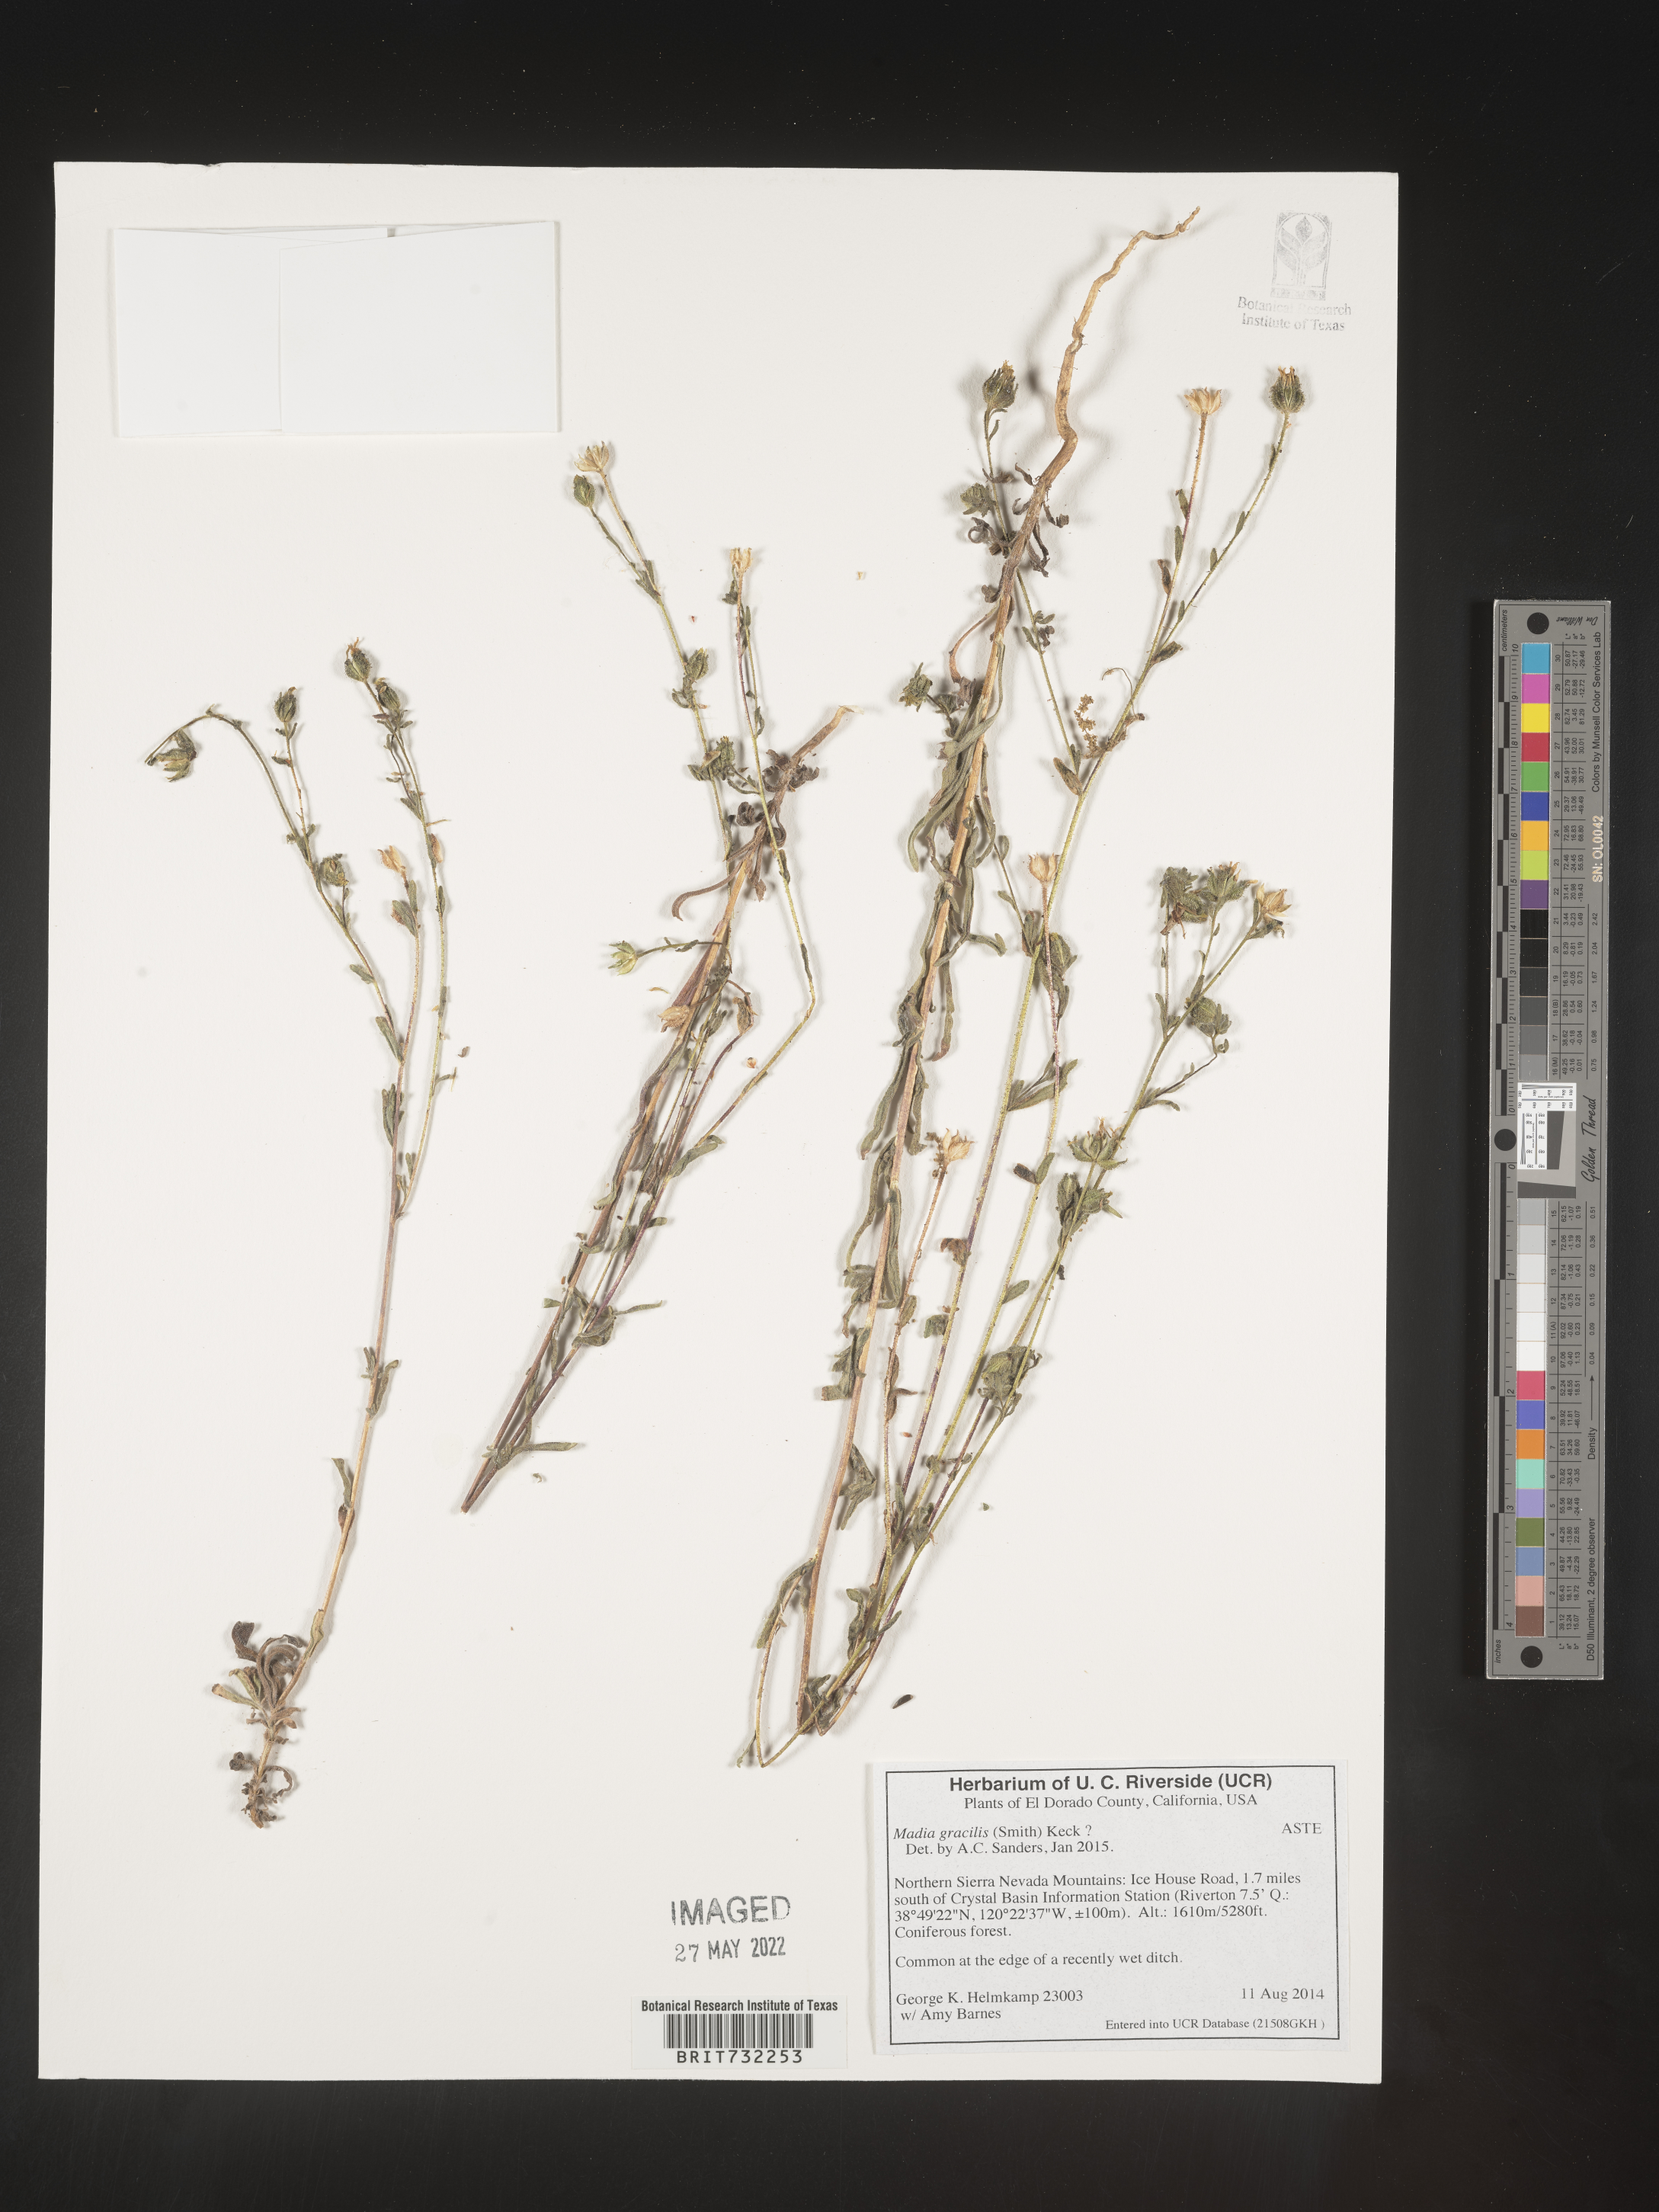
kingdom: Plantae
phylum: Tracheophyta
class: Magnoliopsida
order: Asterales
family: Asteraceae
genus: Madia
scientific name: Madia gracilis
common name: Grassy tarweed
